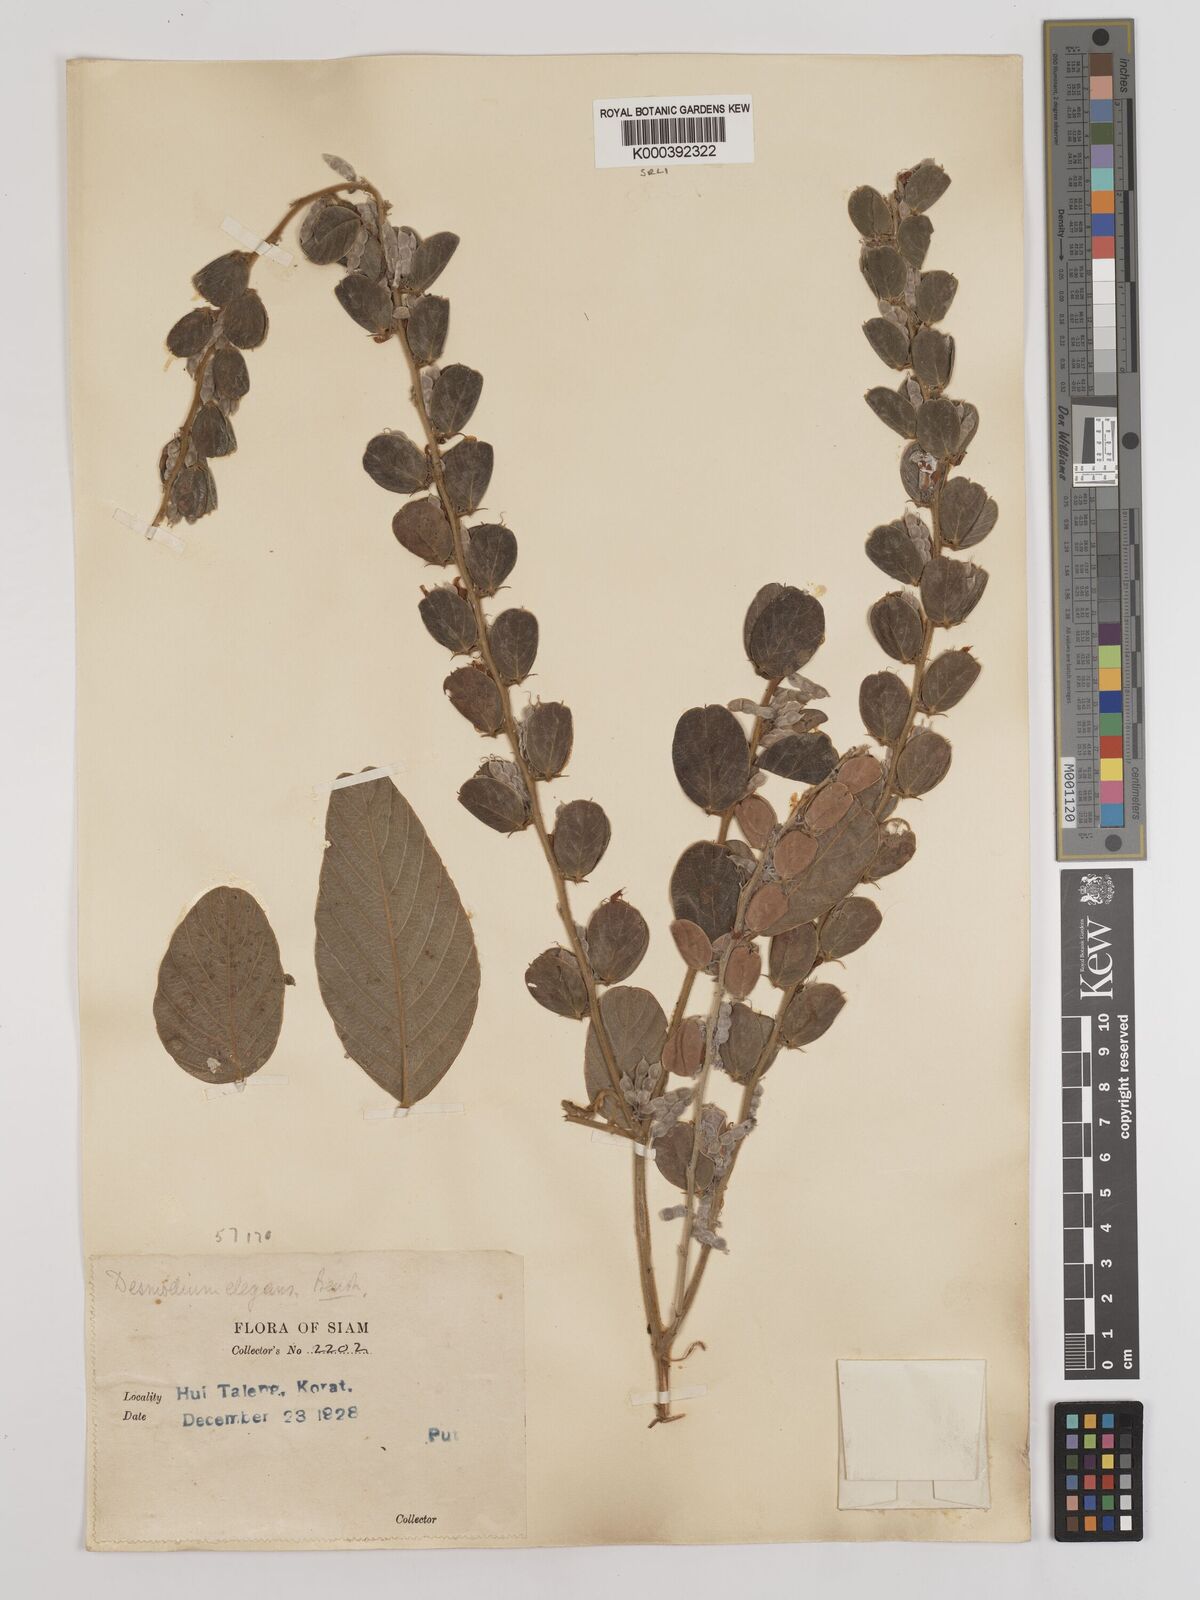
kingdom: Plantae
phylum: Tracheophyta
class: Magnoliopsida
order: Fabales
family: Fabaceae
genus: Phyllodium
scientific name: Phyllodium elegans
